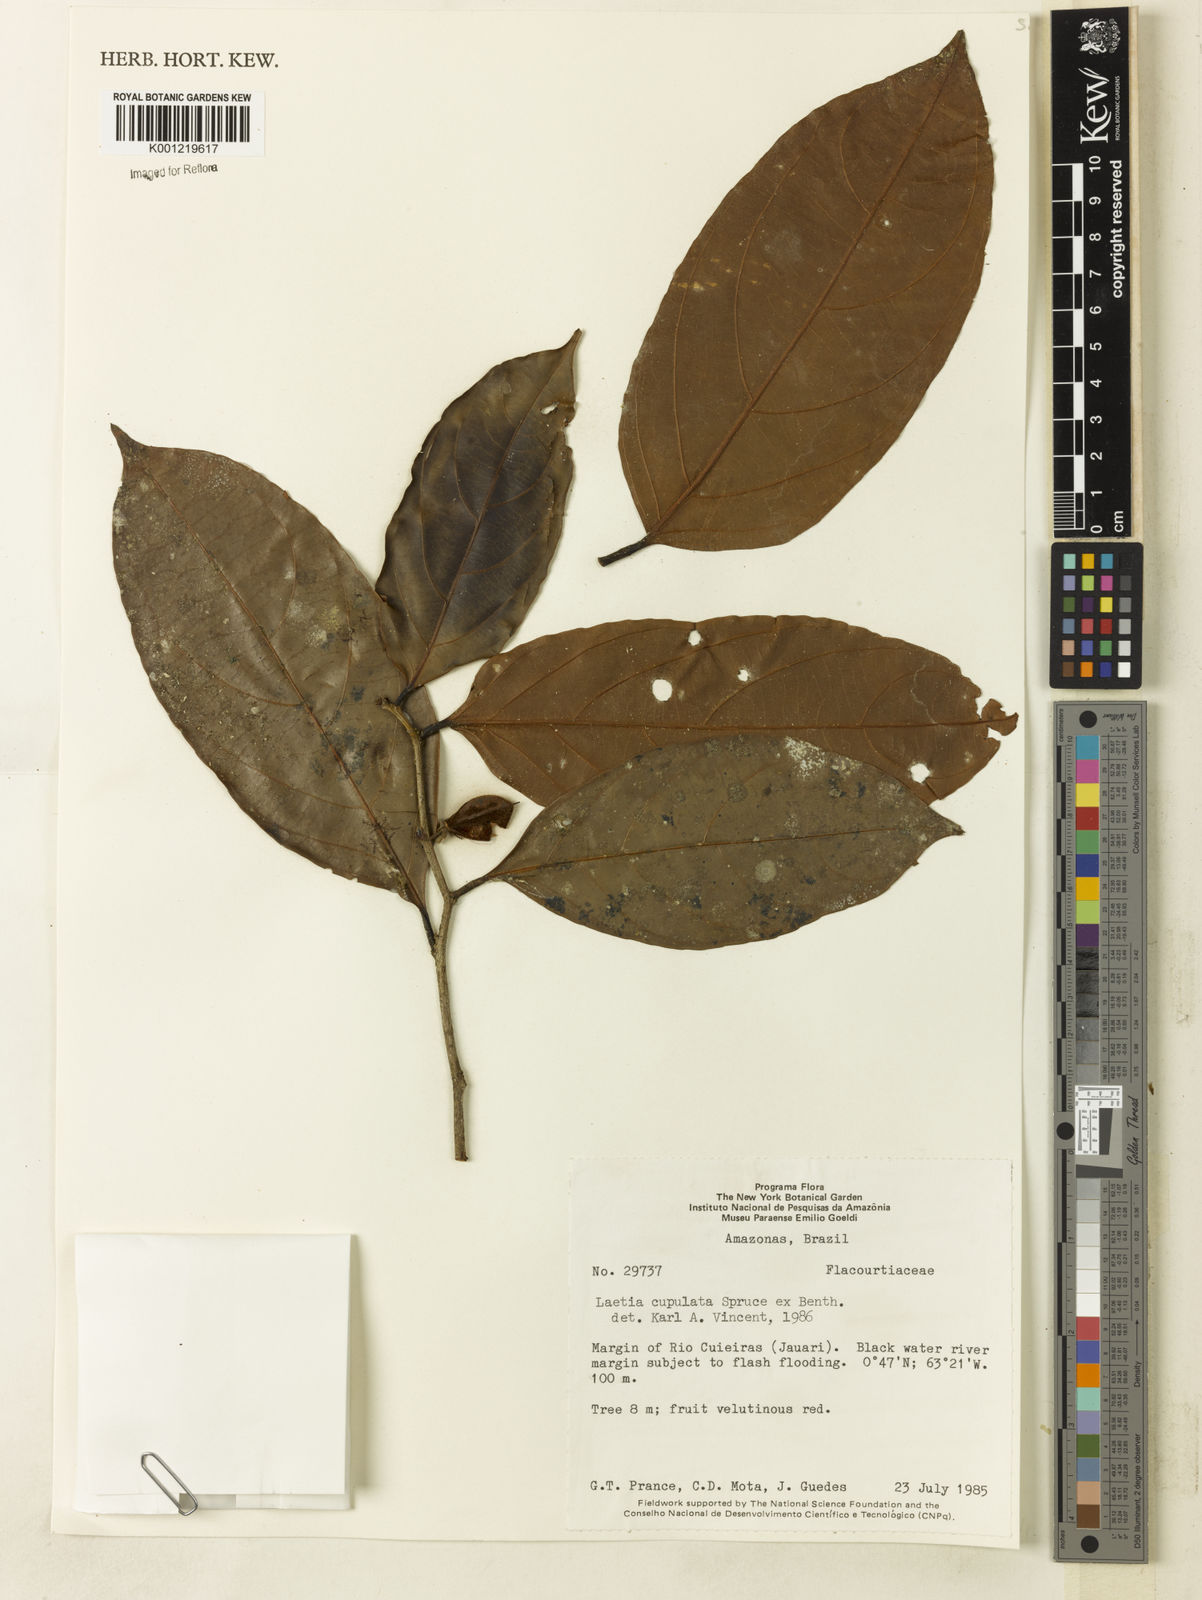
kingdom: Plantae
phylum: Tracheophyta
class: Magnoliopsida
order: Malpighiales
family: Salicaceae
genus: Irenodendron
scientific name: Irenodendron cupulatum
